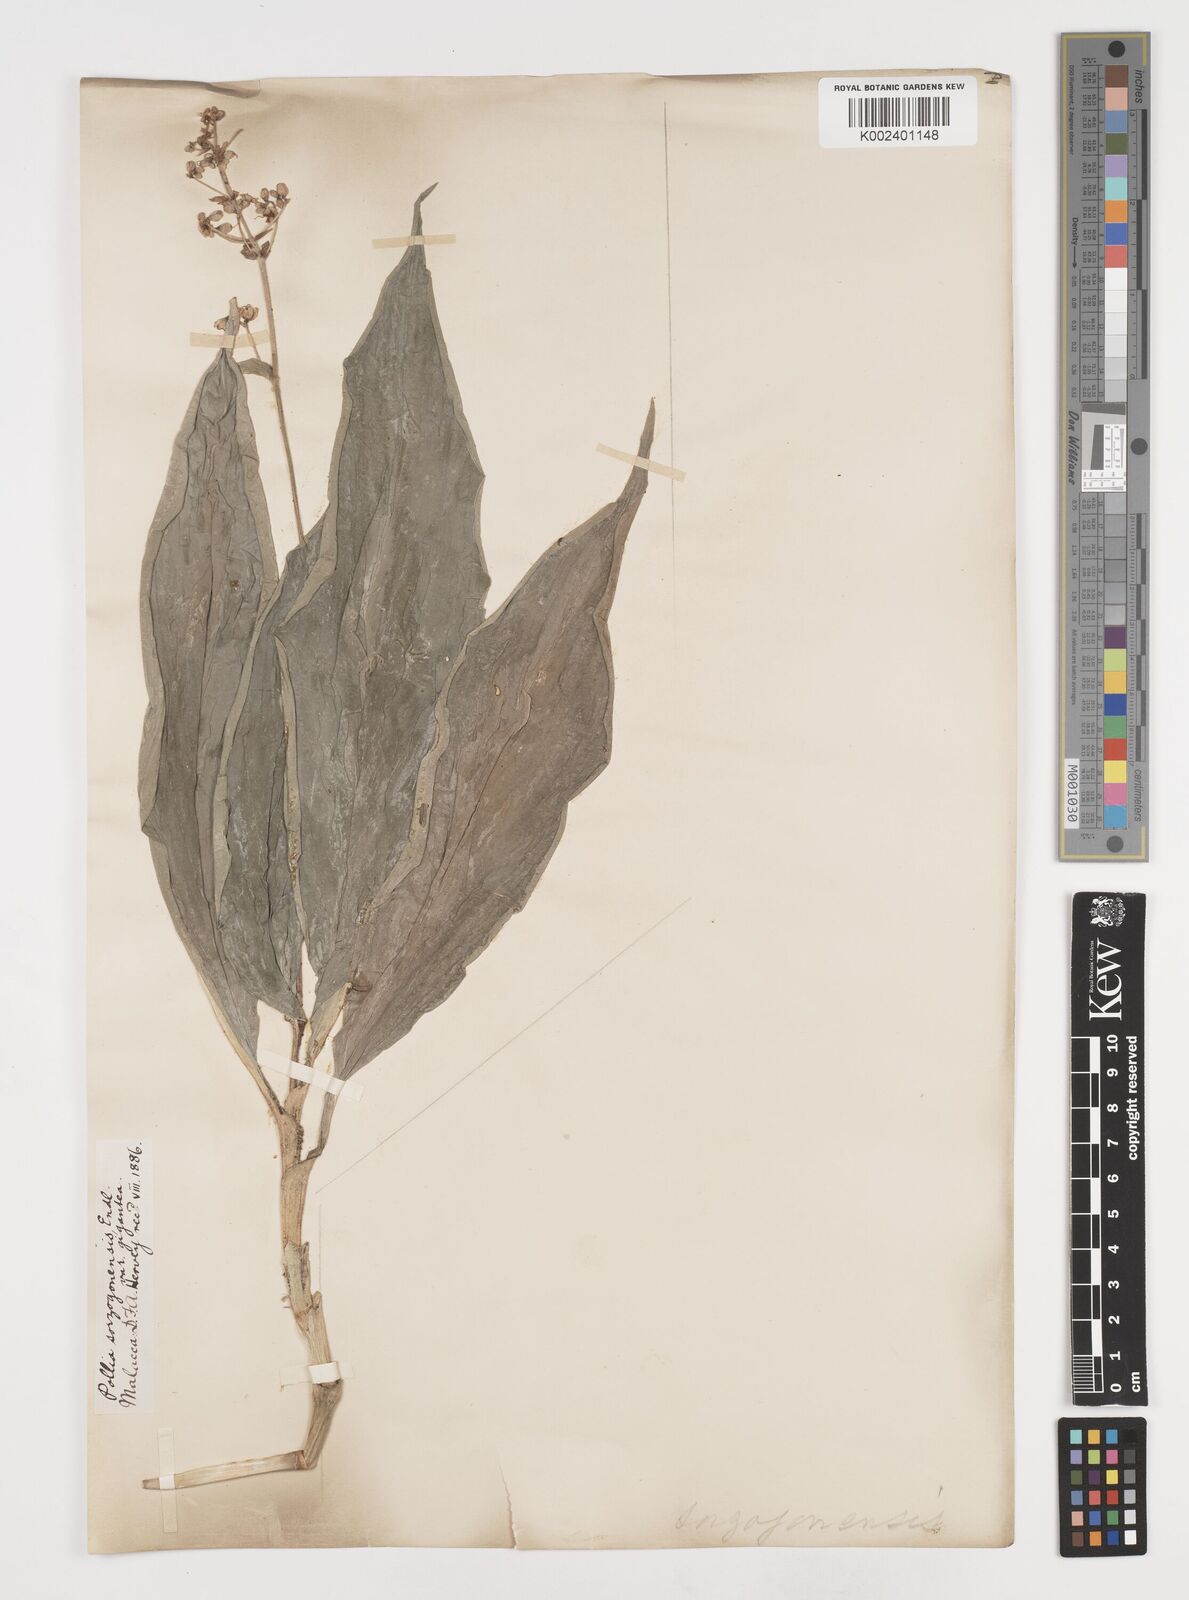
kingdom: Plantae
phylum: Tracheophyta
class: Liliopsida
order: Commelinales
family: Commelinaceae
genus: Pollia
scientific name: Pollia secundiflora
